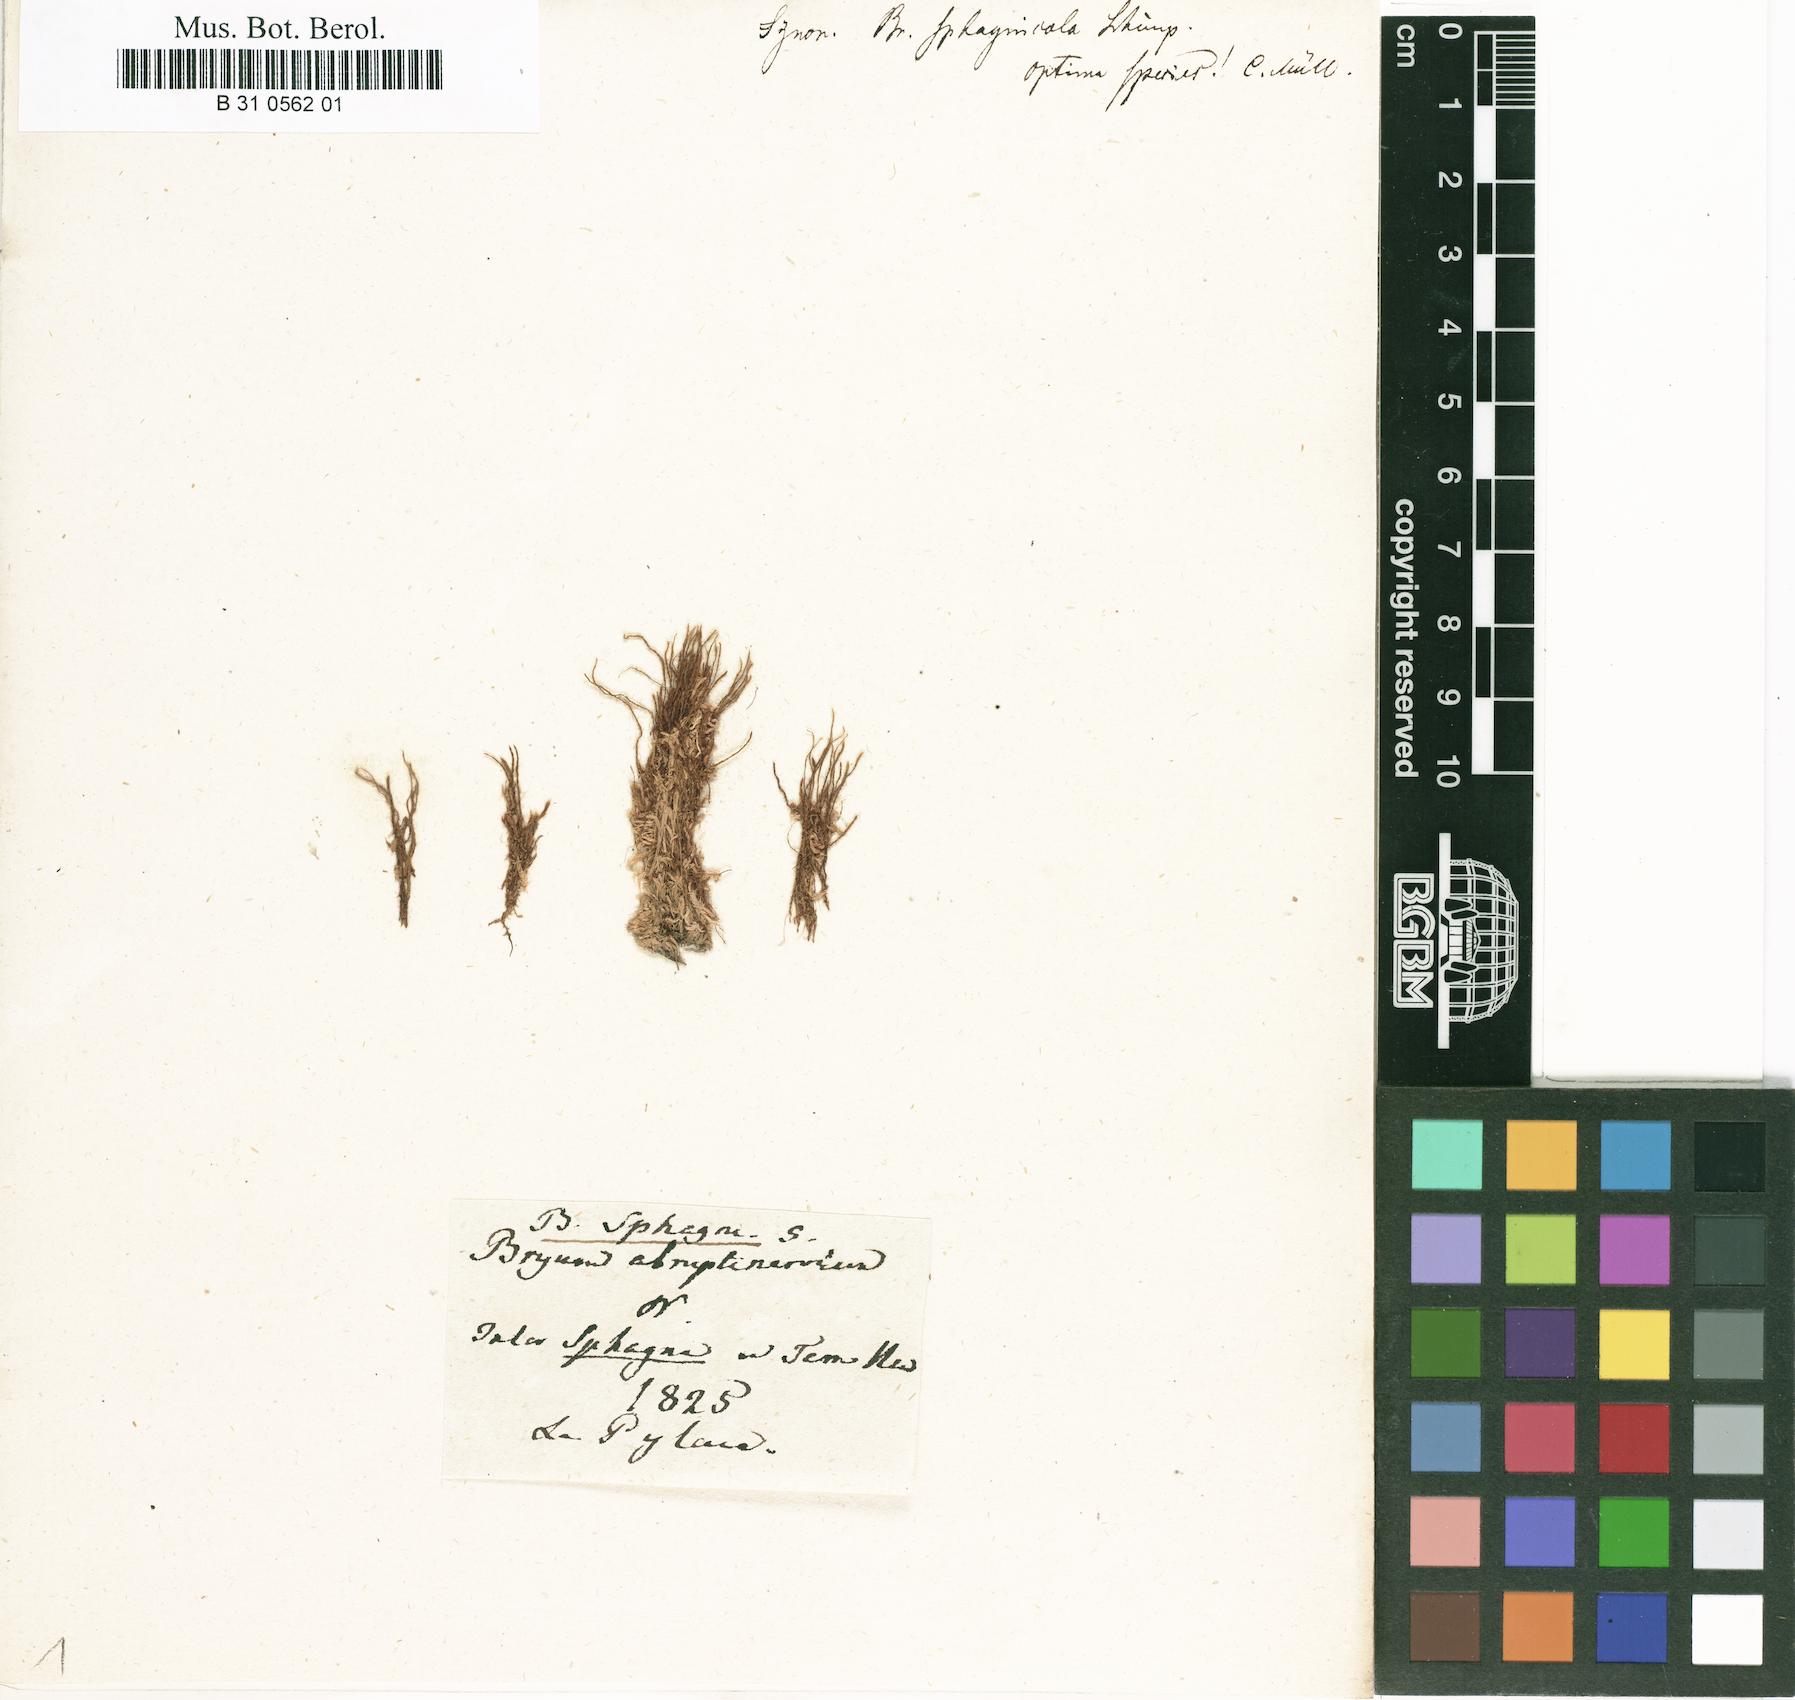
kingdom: Plantae
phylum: Bryophyta
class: Bryopsida
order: Bryales
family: Bryaceae
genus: Ptychostomum
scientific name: Ptychostomum weigelii
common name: Weigel's bryum moss
